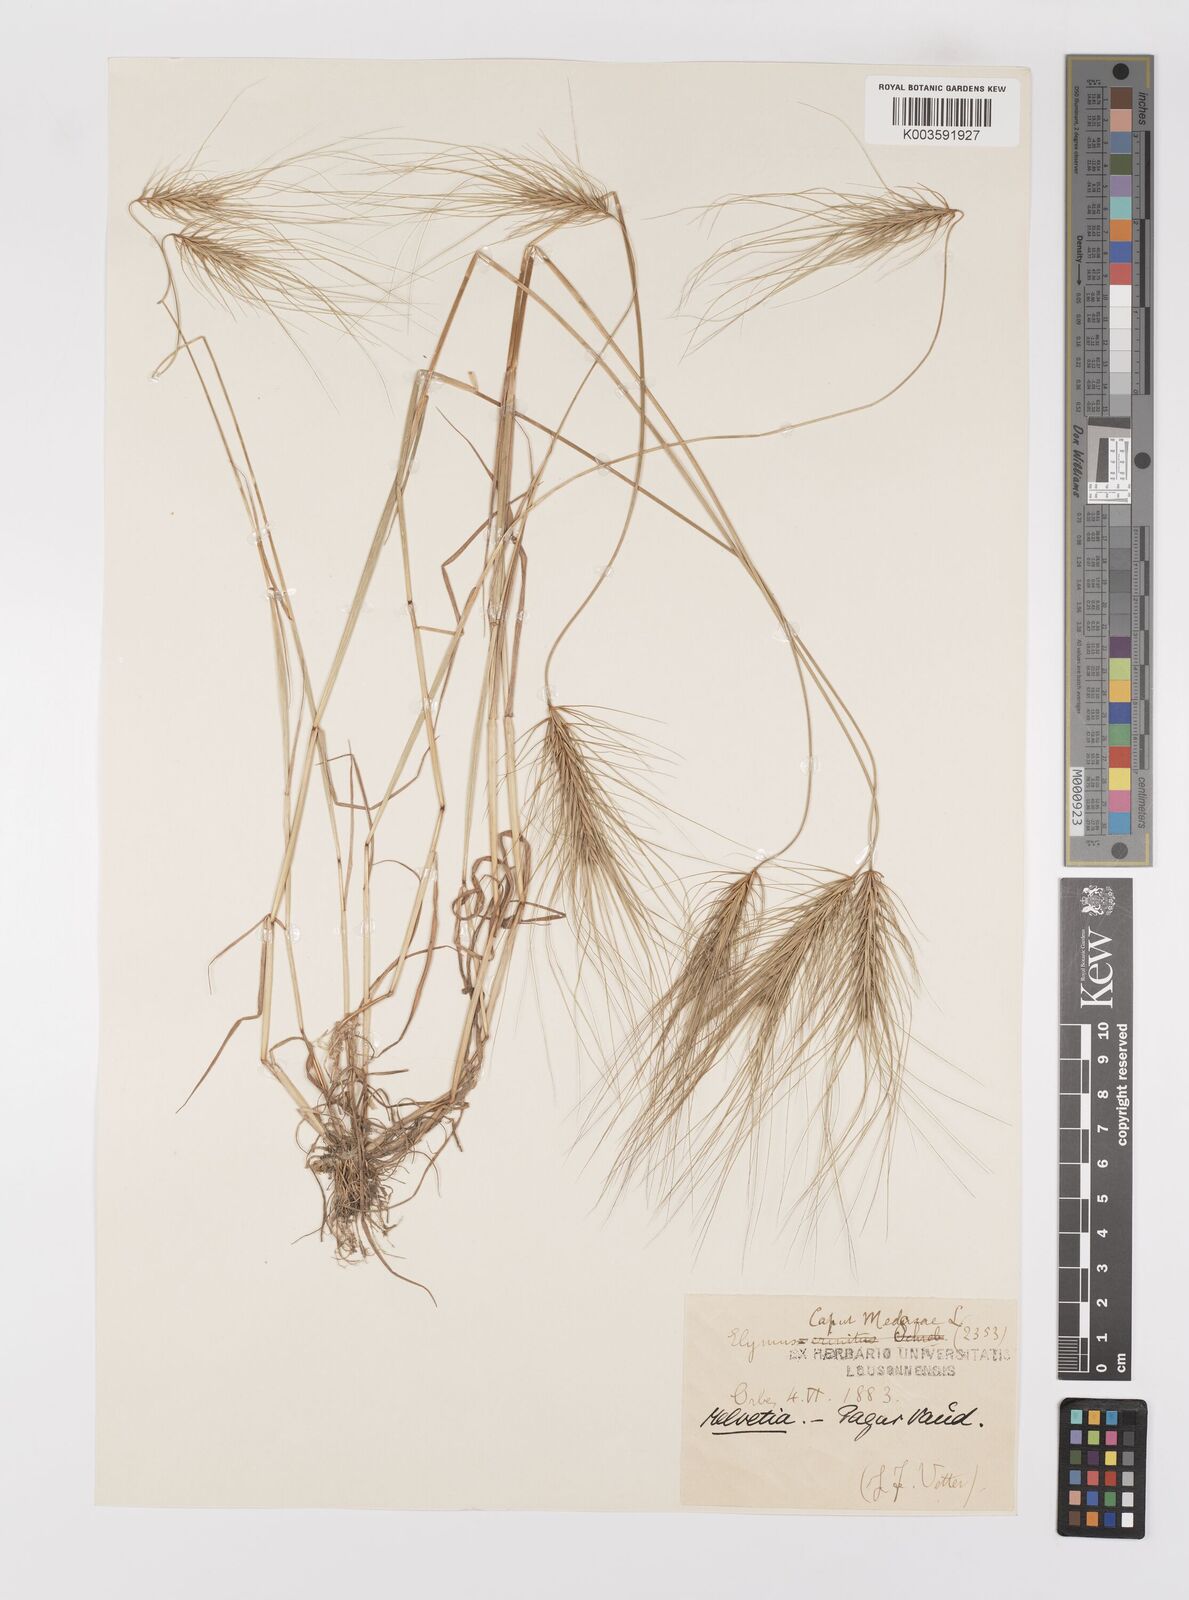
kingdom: Plantae
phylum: Tracheophyta
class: Liliopsida
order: Poales
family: Poaceae
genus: Taeniatherum
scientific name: Taeniatherum caput-medusae
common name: Medusahead
